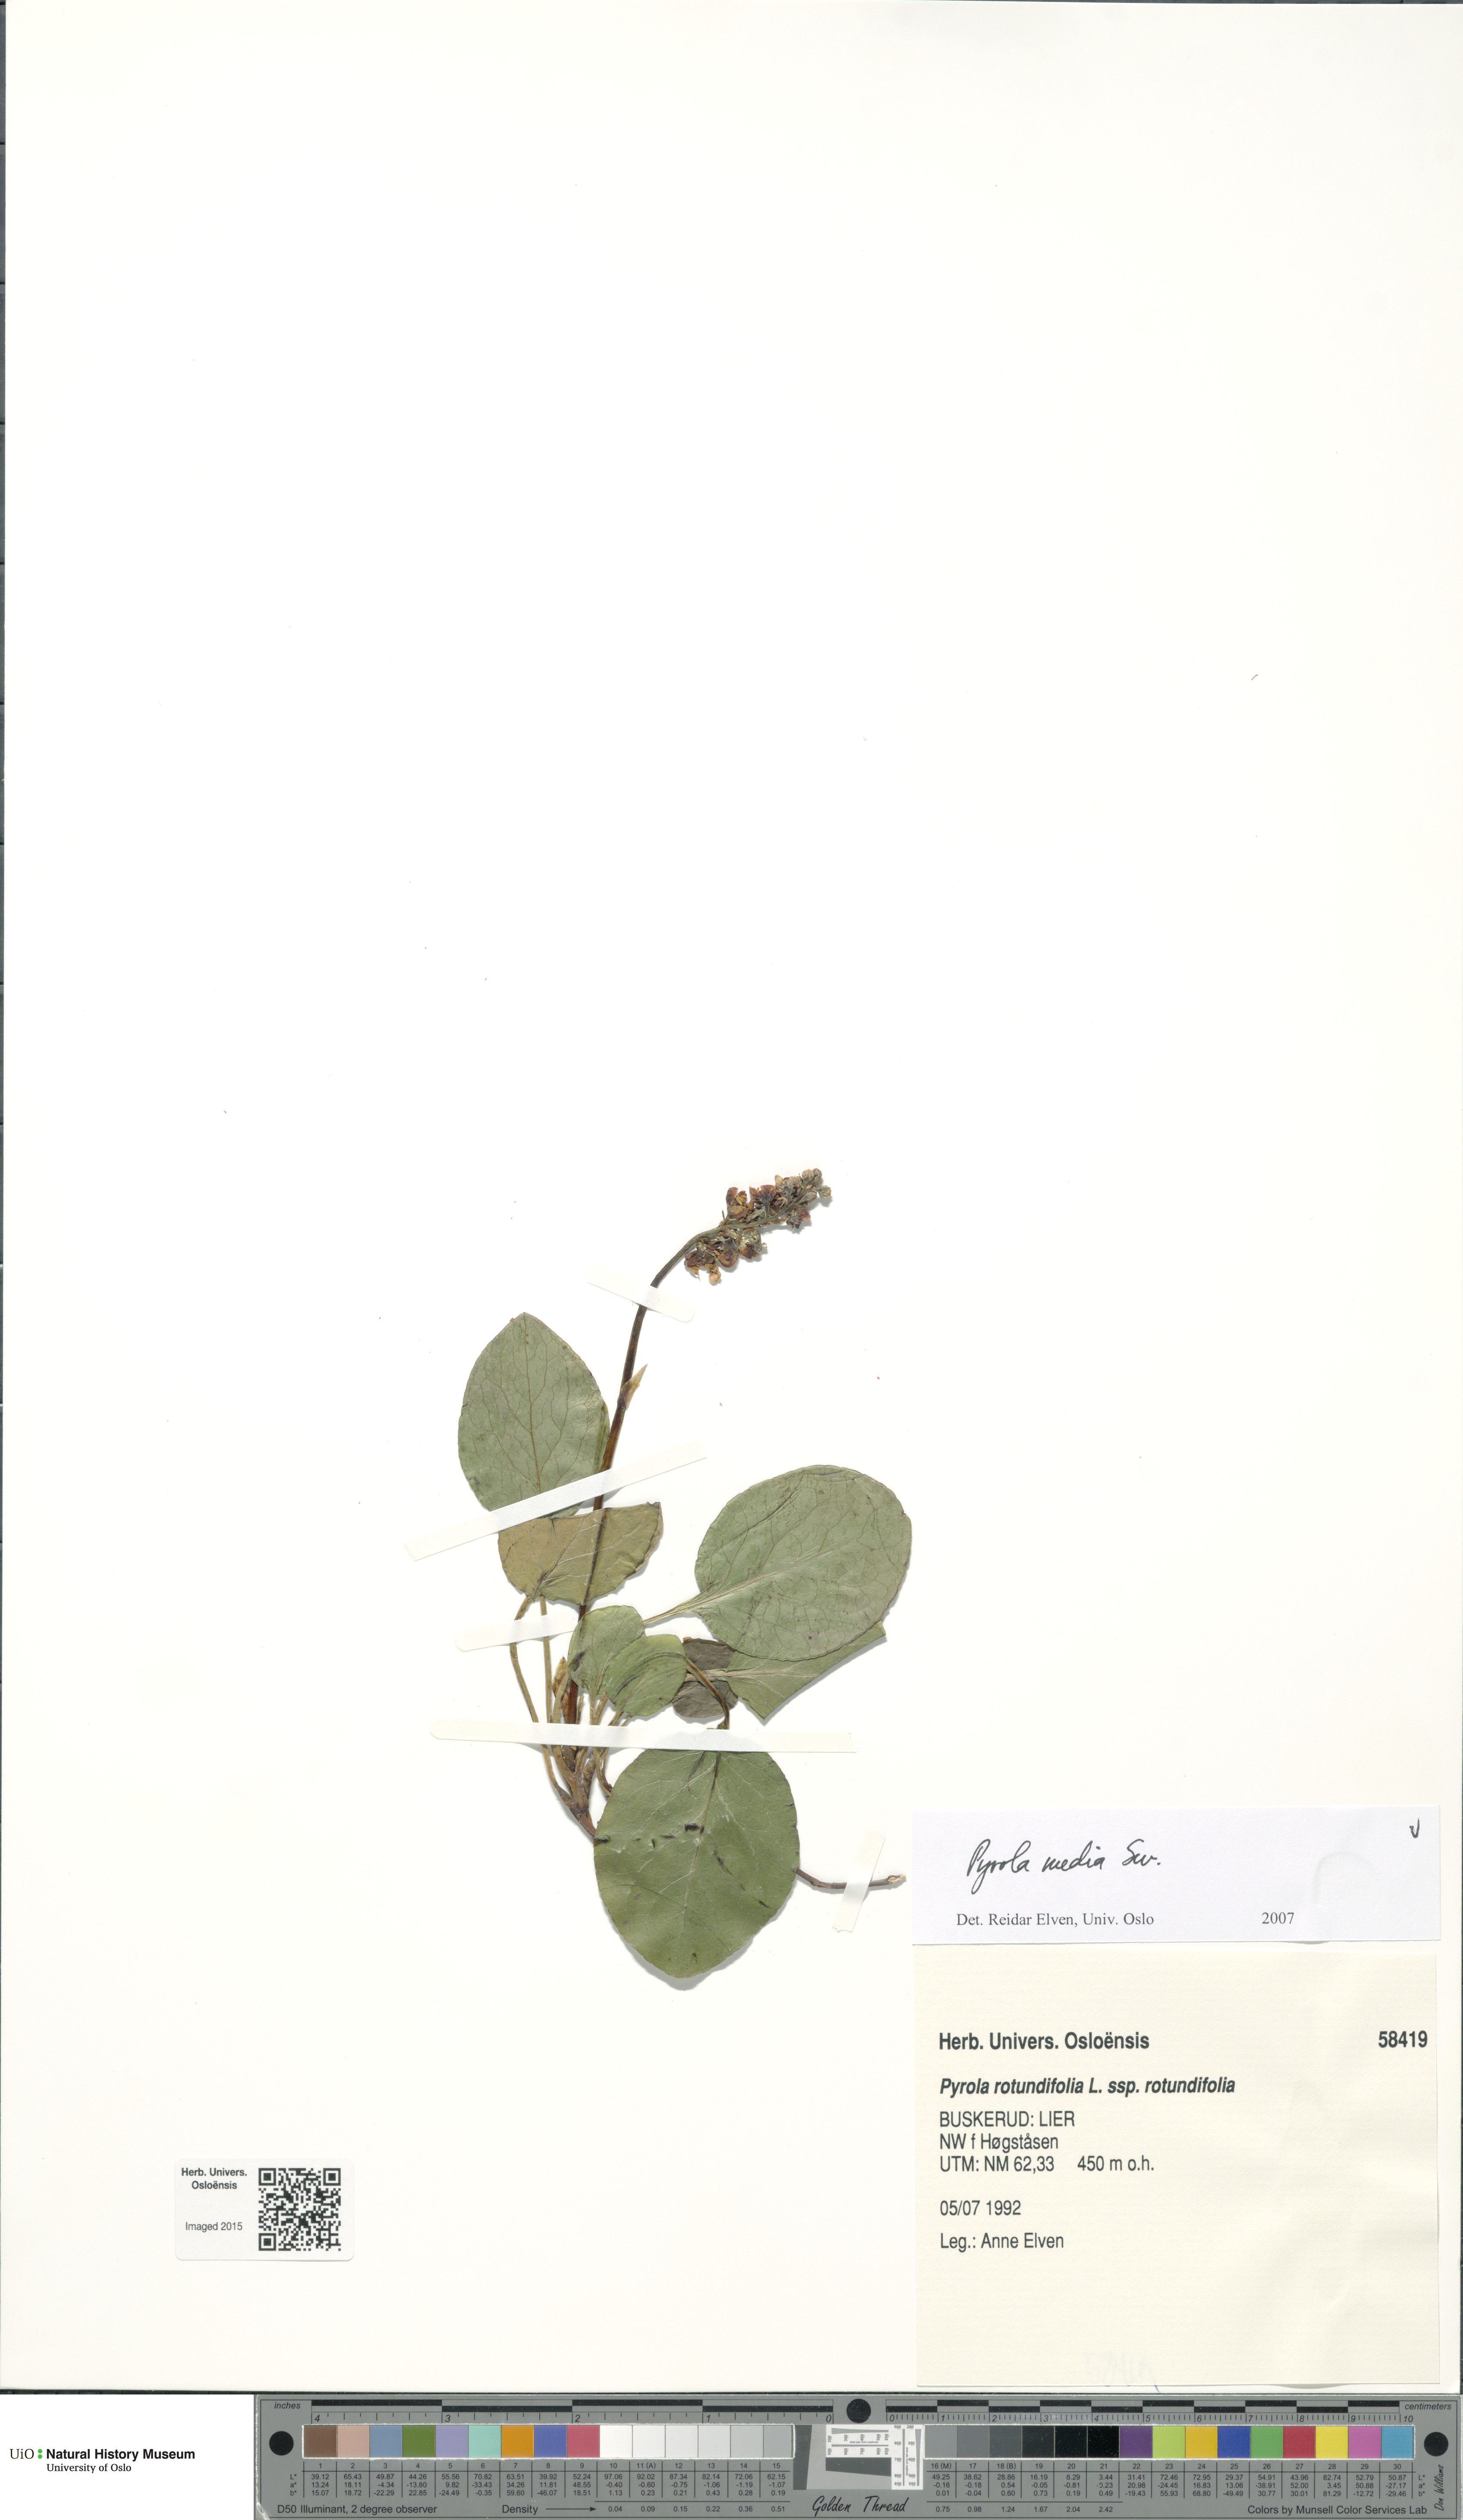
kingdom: Plantae
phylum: Tracheophyta
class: Magnoliopsida
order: Ericales
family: Ericaceae
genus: Pyrola
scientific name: Pyrola media
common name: Intermediate wintergreen
